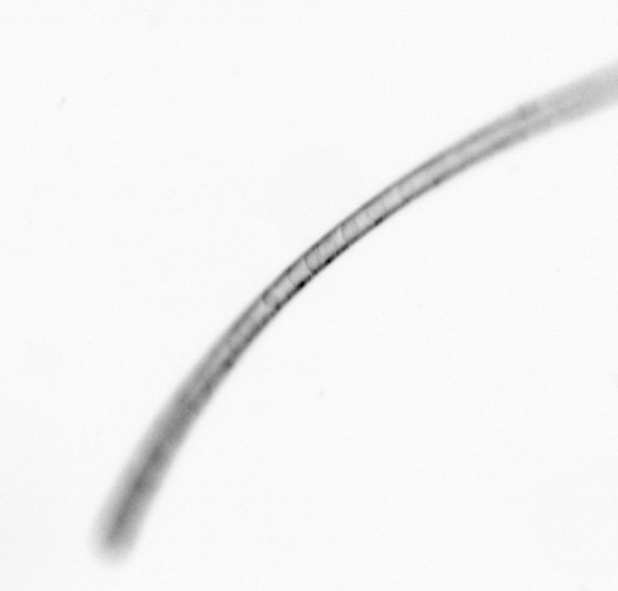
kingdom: Chromista
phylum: Ochrophyta
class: Bacillariophyceae
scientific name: Bacillariophyceae
